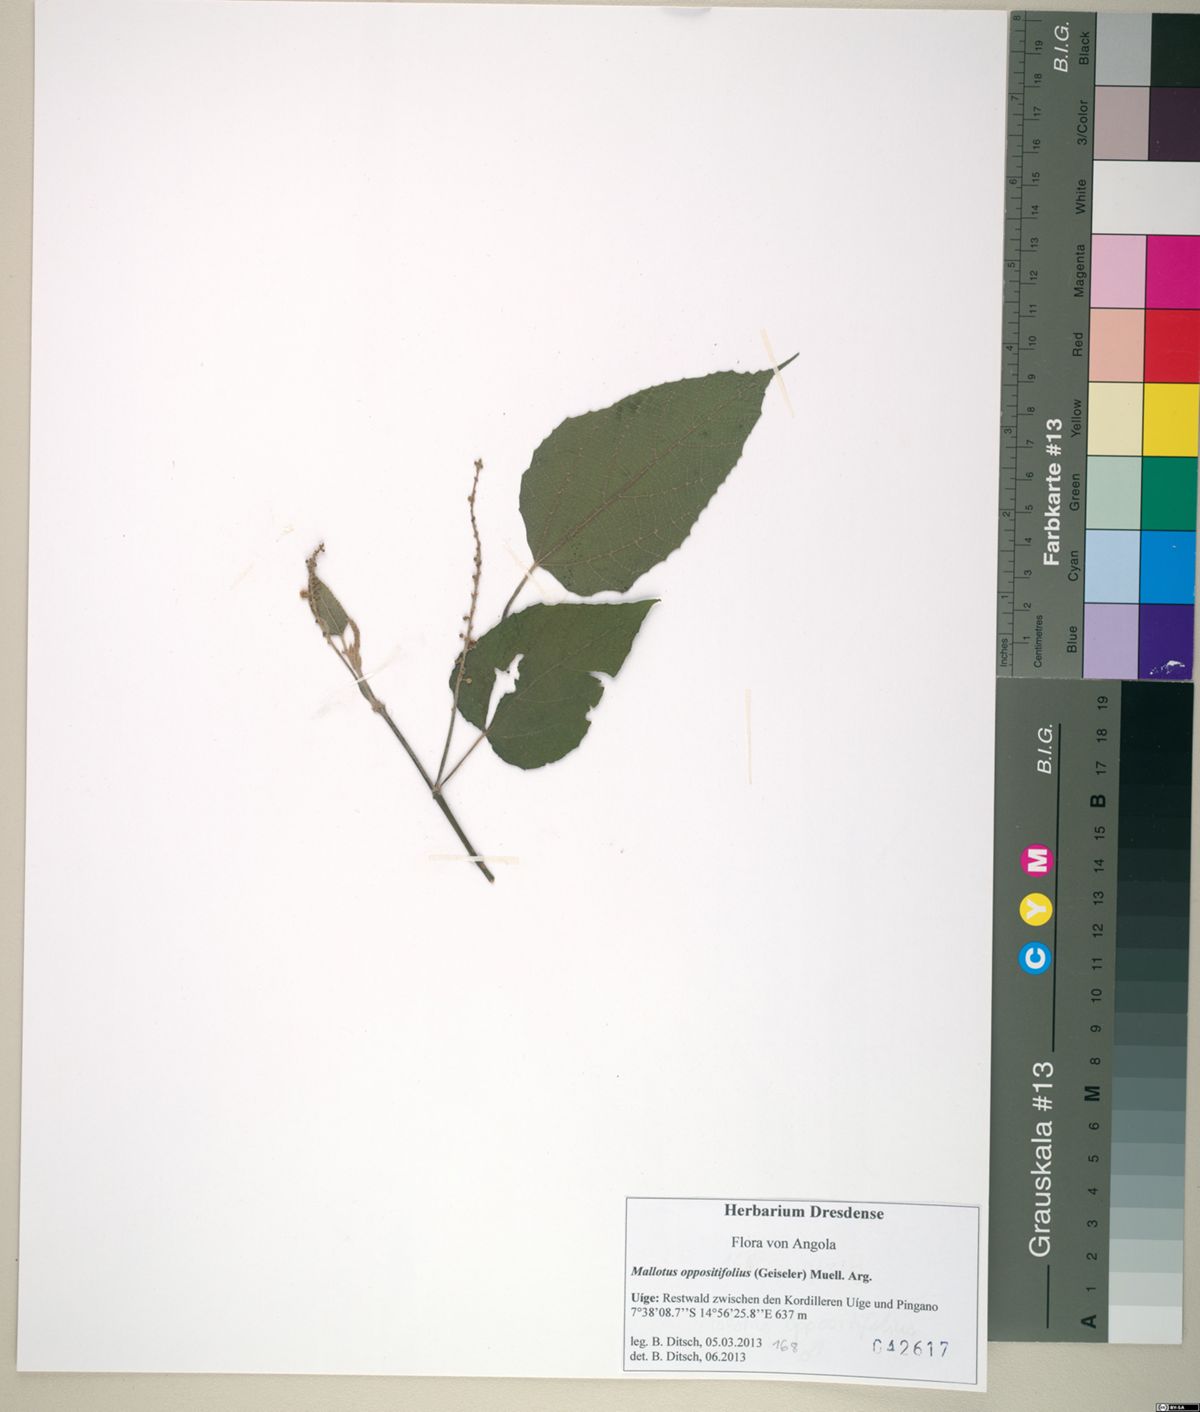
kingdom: Plantae
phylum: Tracheophyta
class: Magnoliopsida
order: Malpighiales
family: Euphorbiaceae
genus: Mallotus
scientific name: Mallotus oppositifolius
